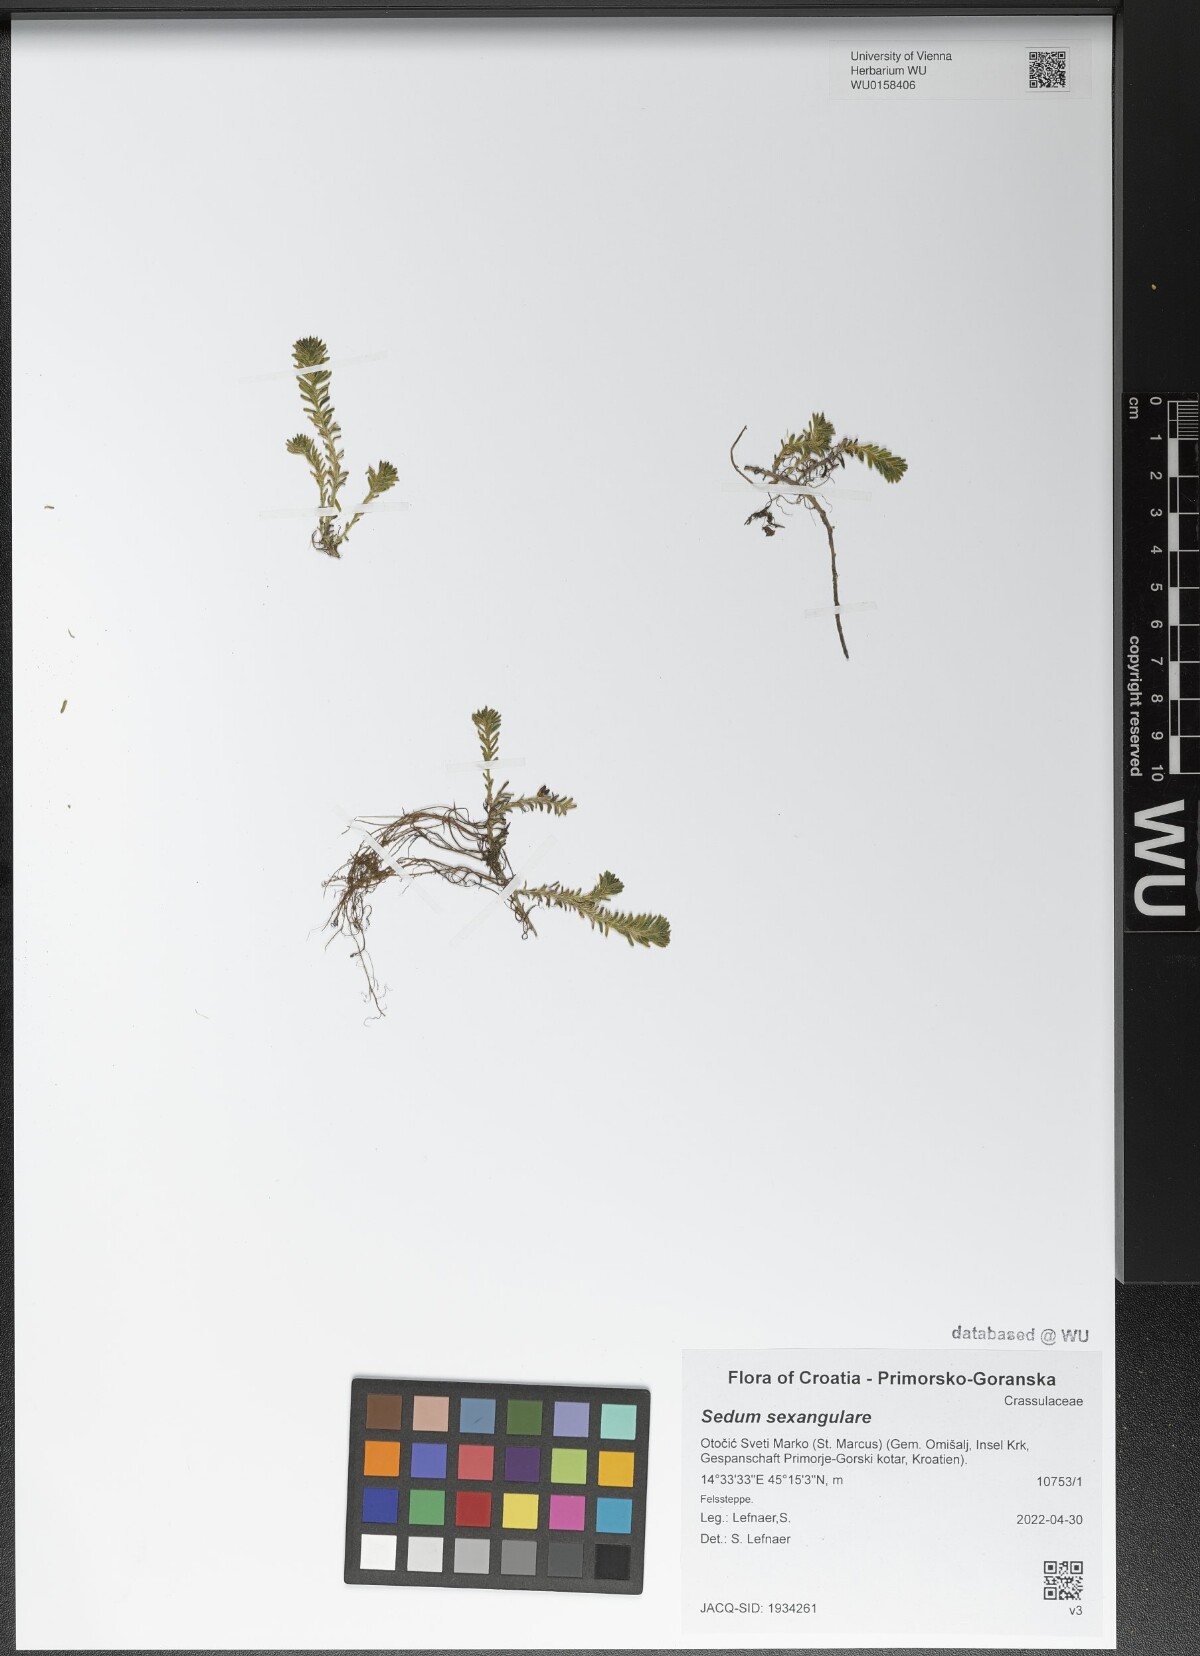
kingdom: Plantae
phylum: Tracheophyta
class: Magnoliopsida
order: Saxifragales
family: Crassulaceae
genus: Sedum
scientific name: Sedum sexangulare
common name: Tasteless stonecrop
